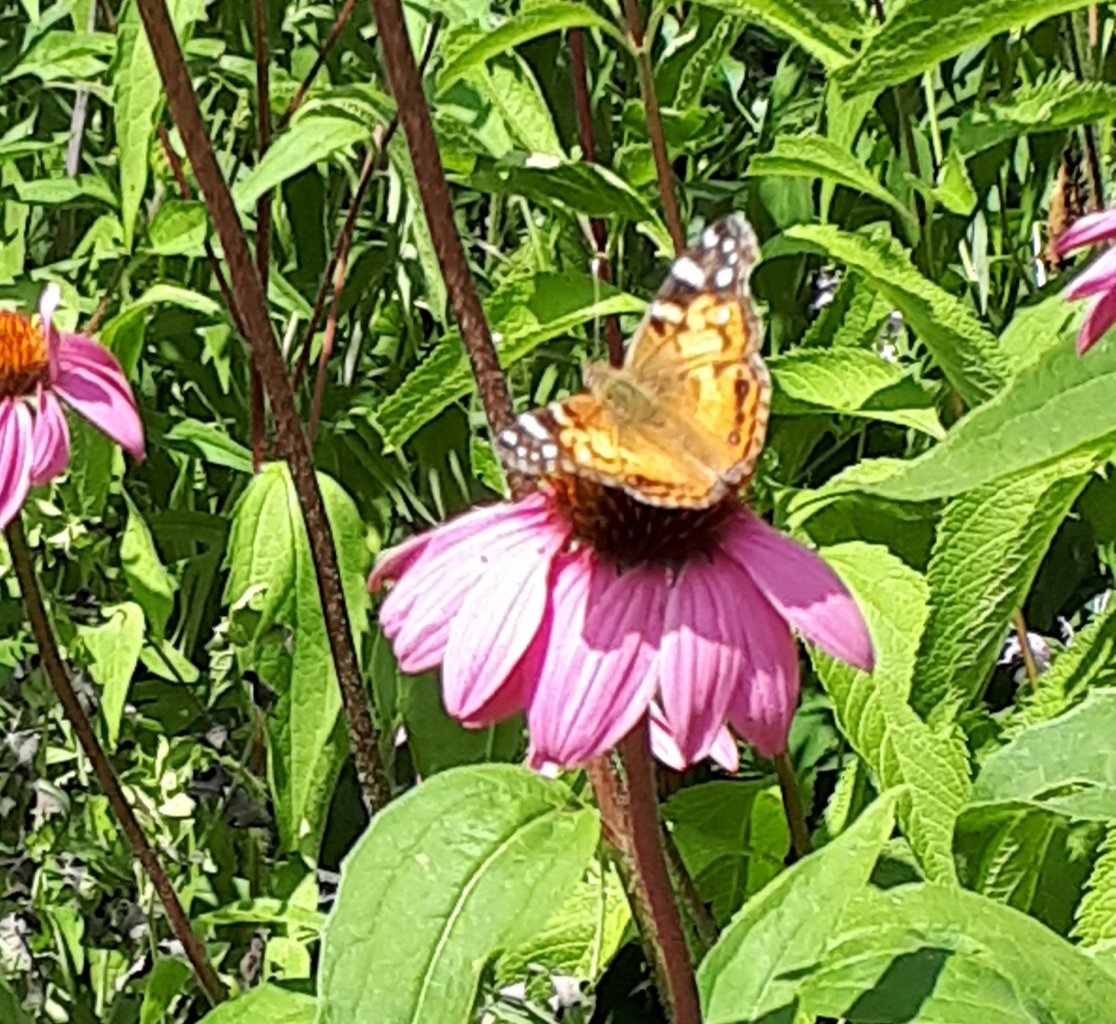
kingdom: Animalia
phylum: Arthropoda
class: Insecta
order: Lepidoptera
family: Nymphalidae
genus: Vanessa
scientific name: Vanessa virginiensis
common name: American Lady
